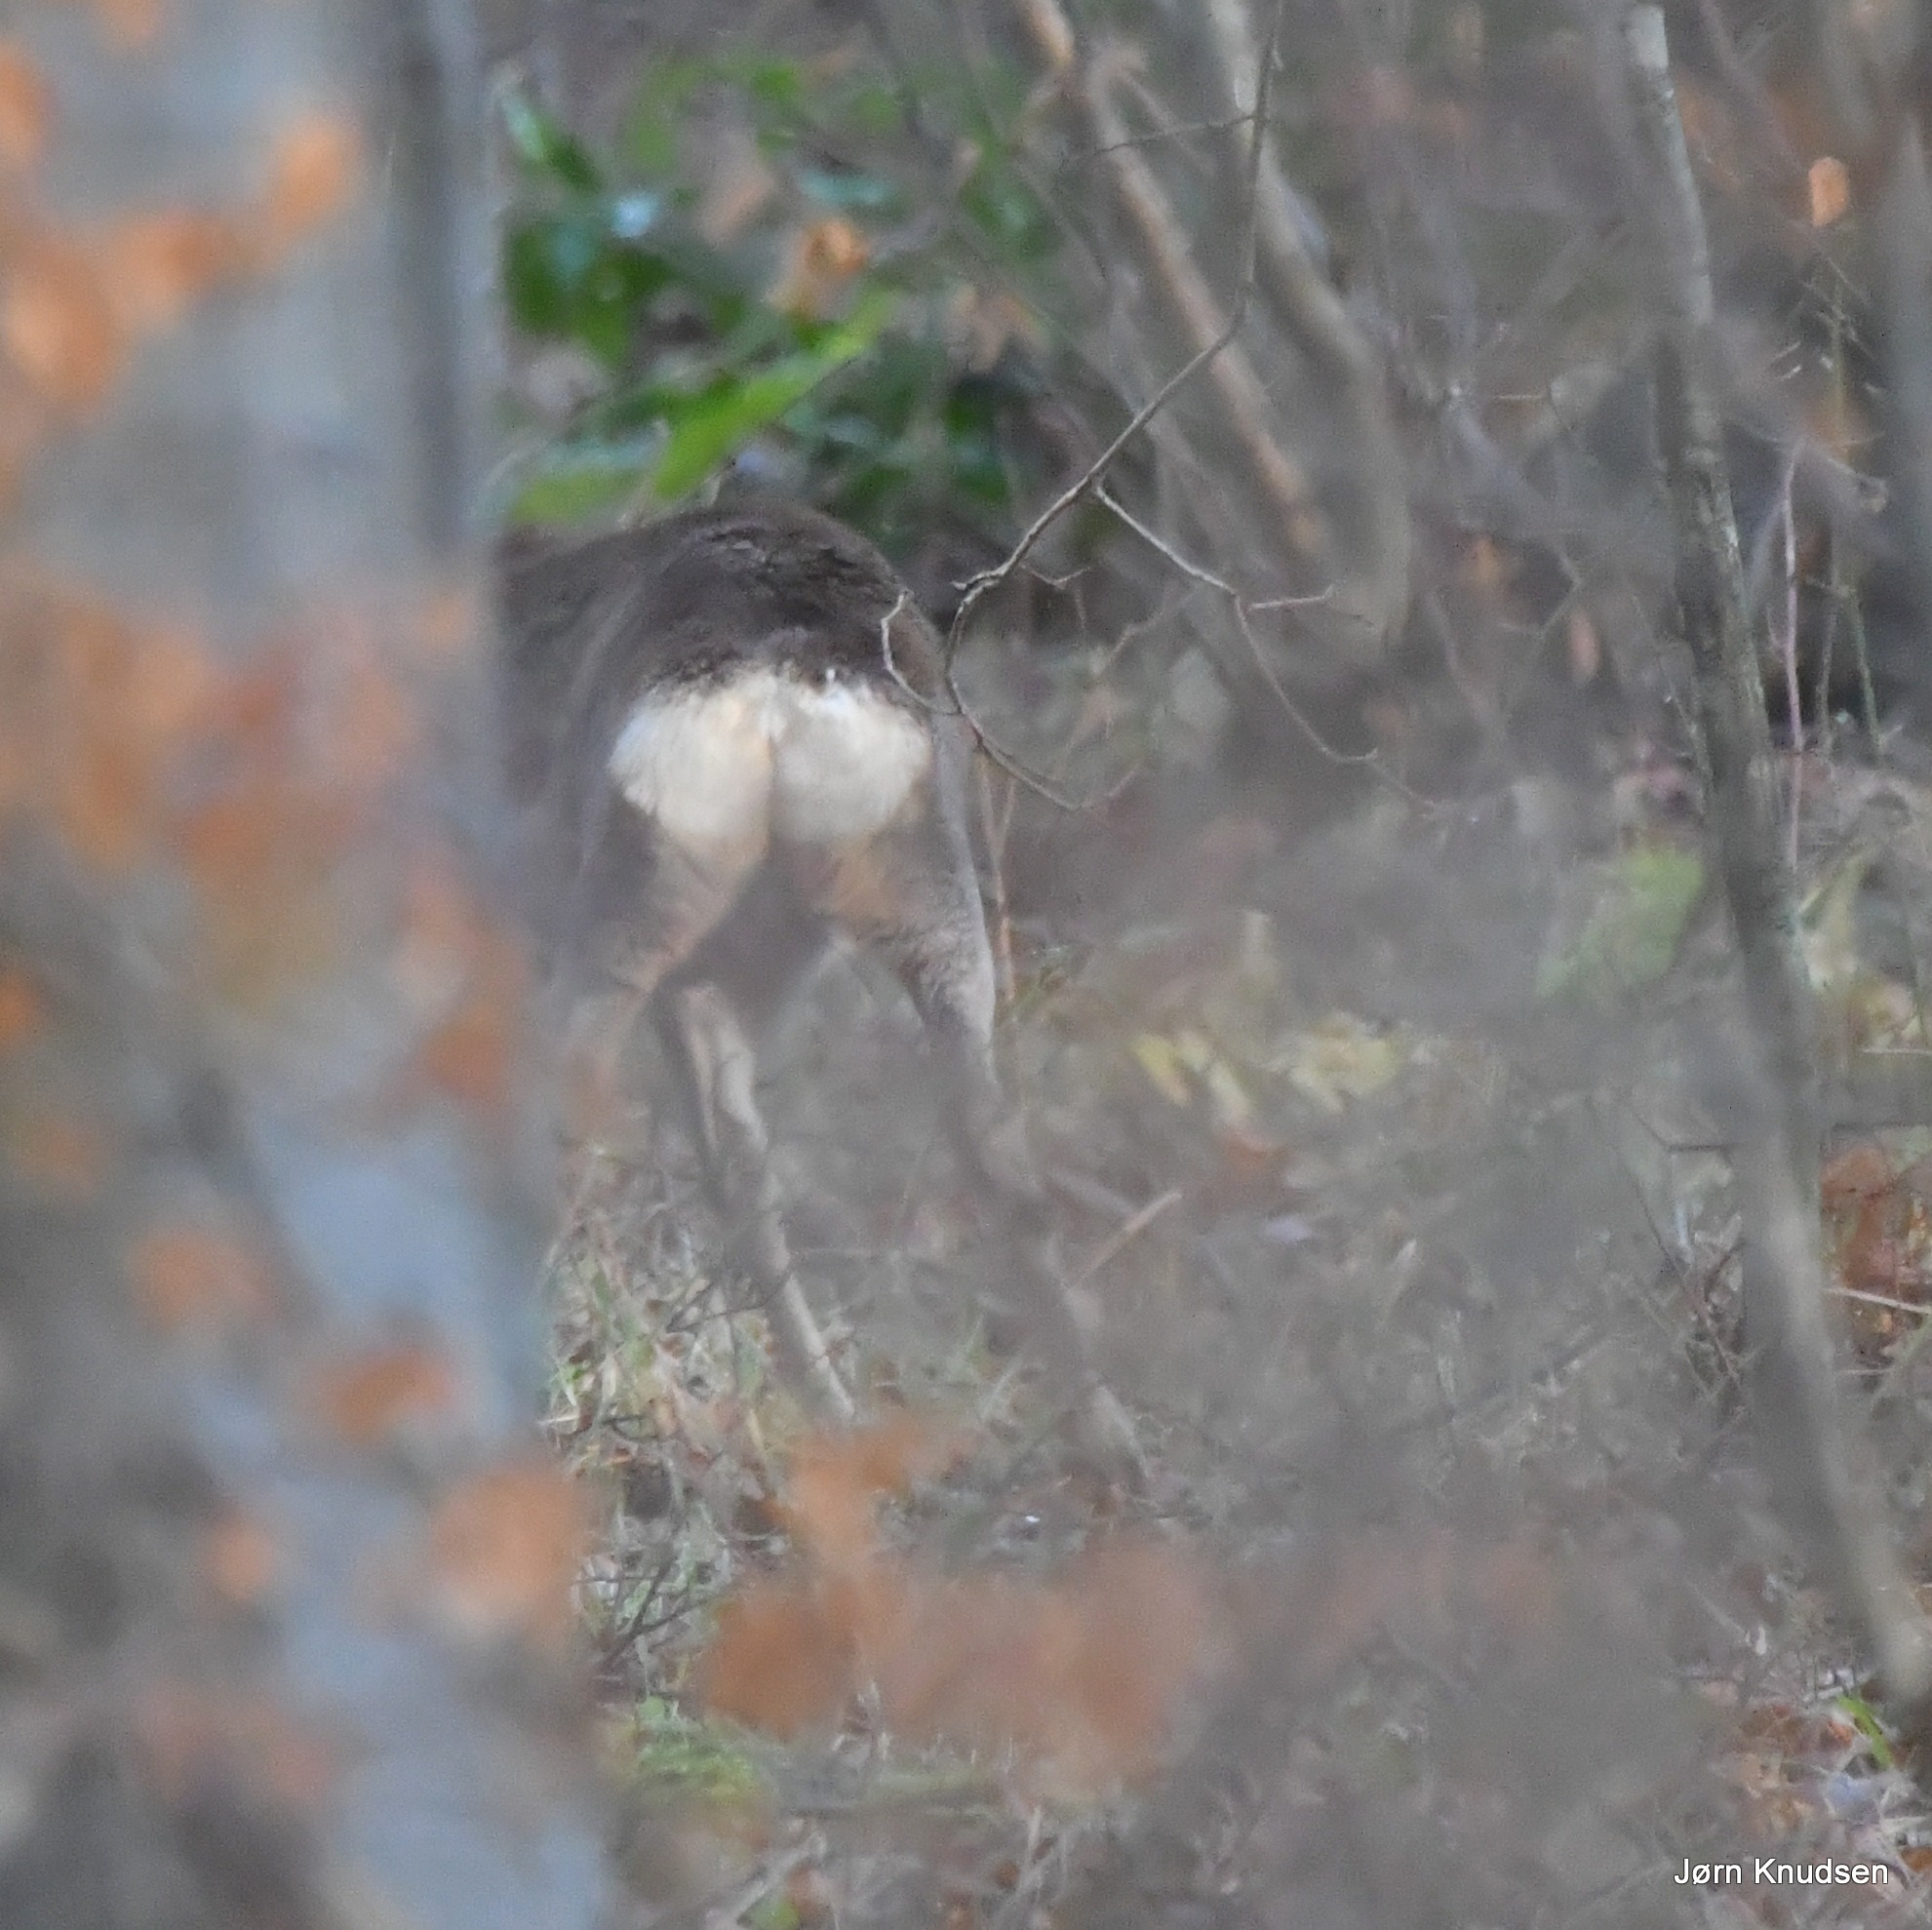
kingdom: Animalia
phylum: Chordata
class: Mammalia
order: Artiodactyla
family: Cervidae
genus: Capreolus
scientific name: Capreolus capreolus
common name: Rådyr
